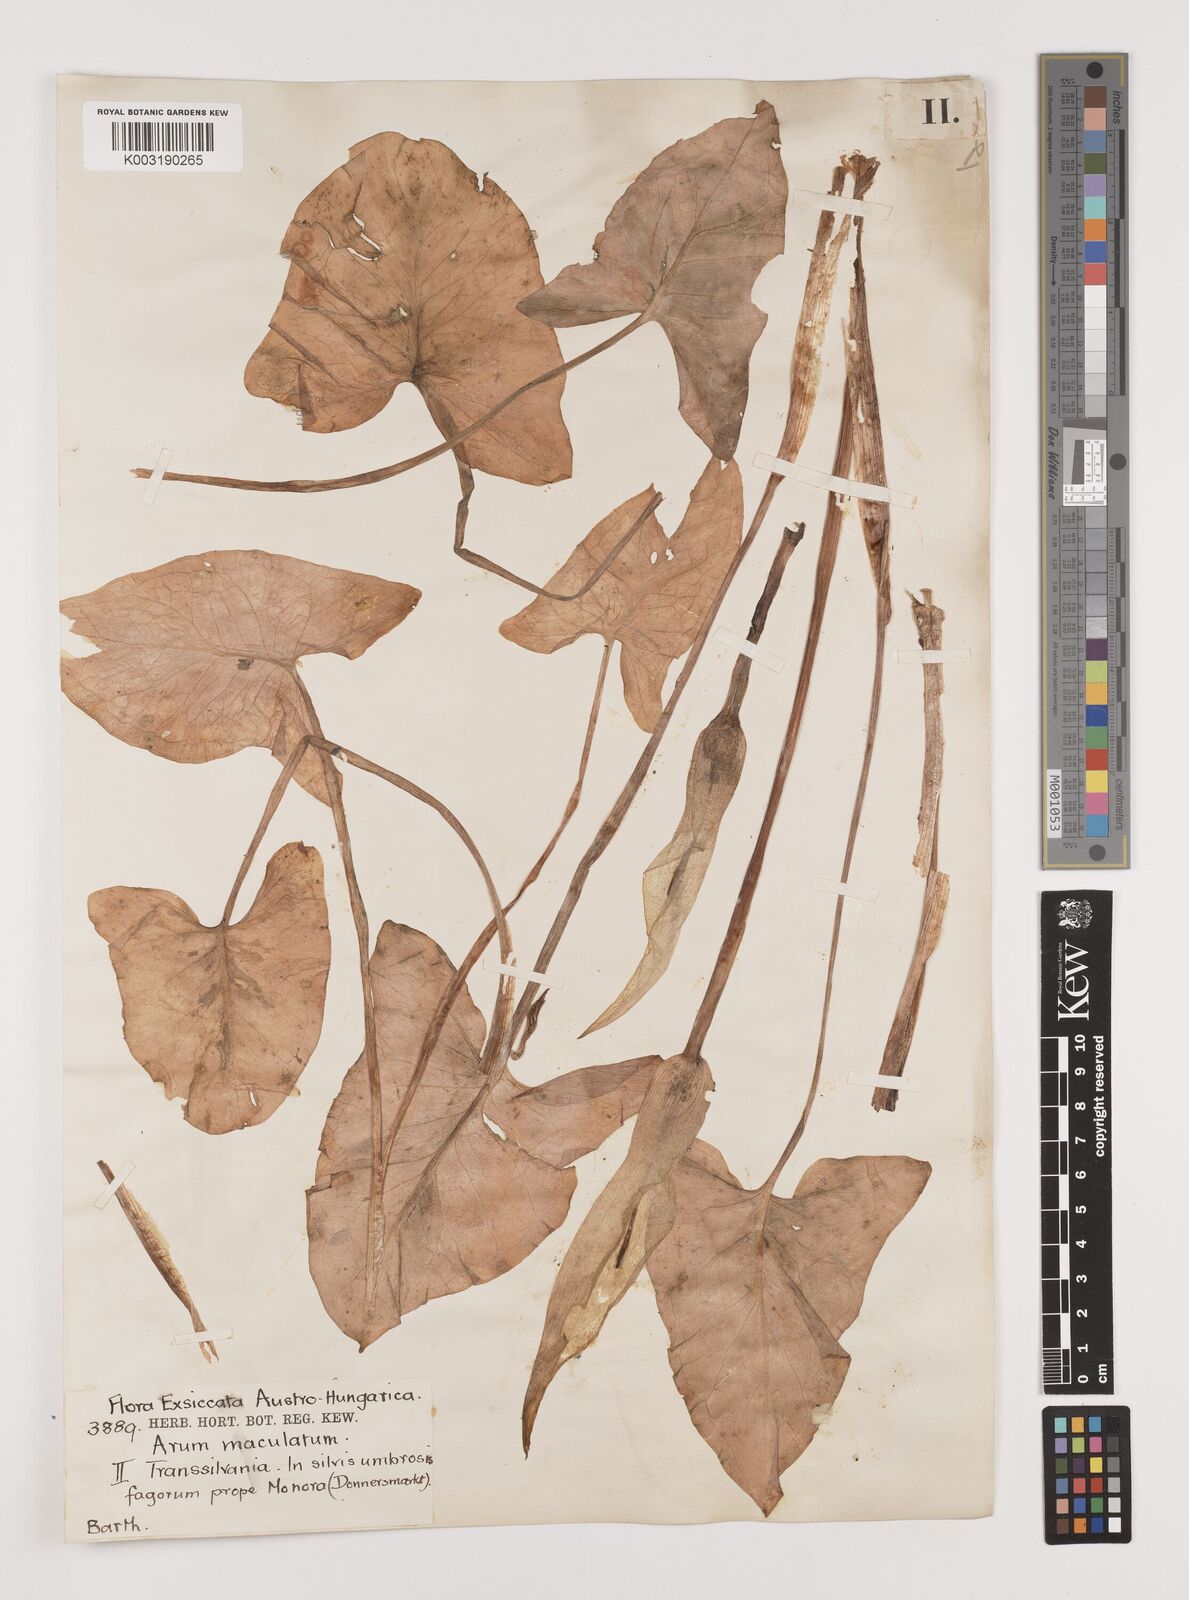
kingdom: Plantae
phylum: Tracheophyta
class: Liliopsida
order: Alismatales
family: Araceae
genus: Arum
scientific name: Arum cylindraceum
